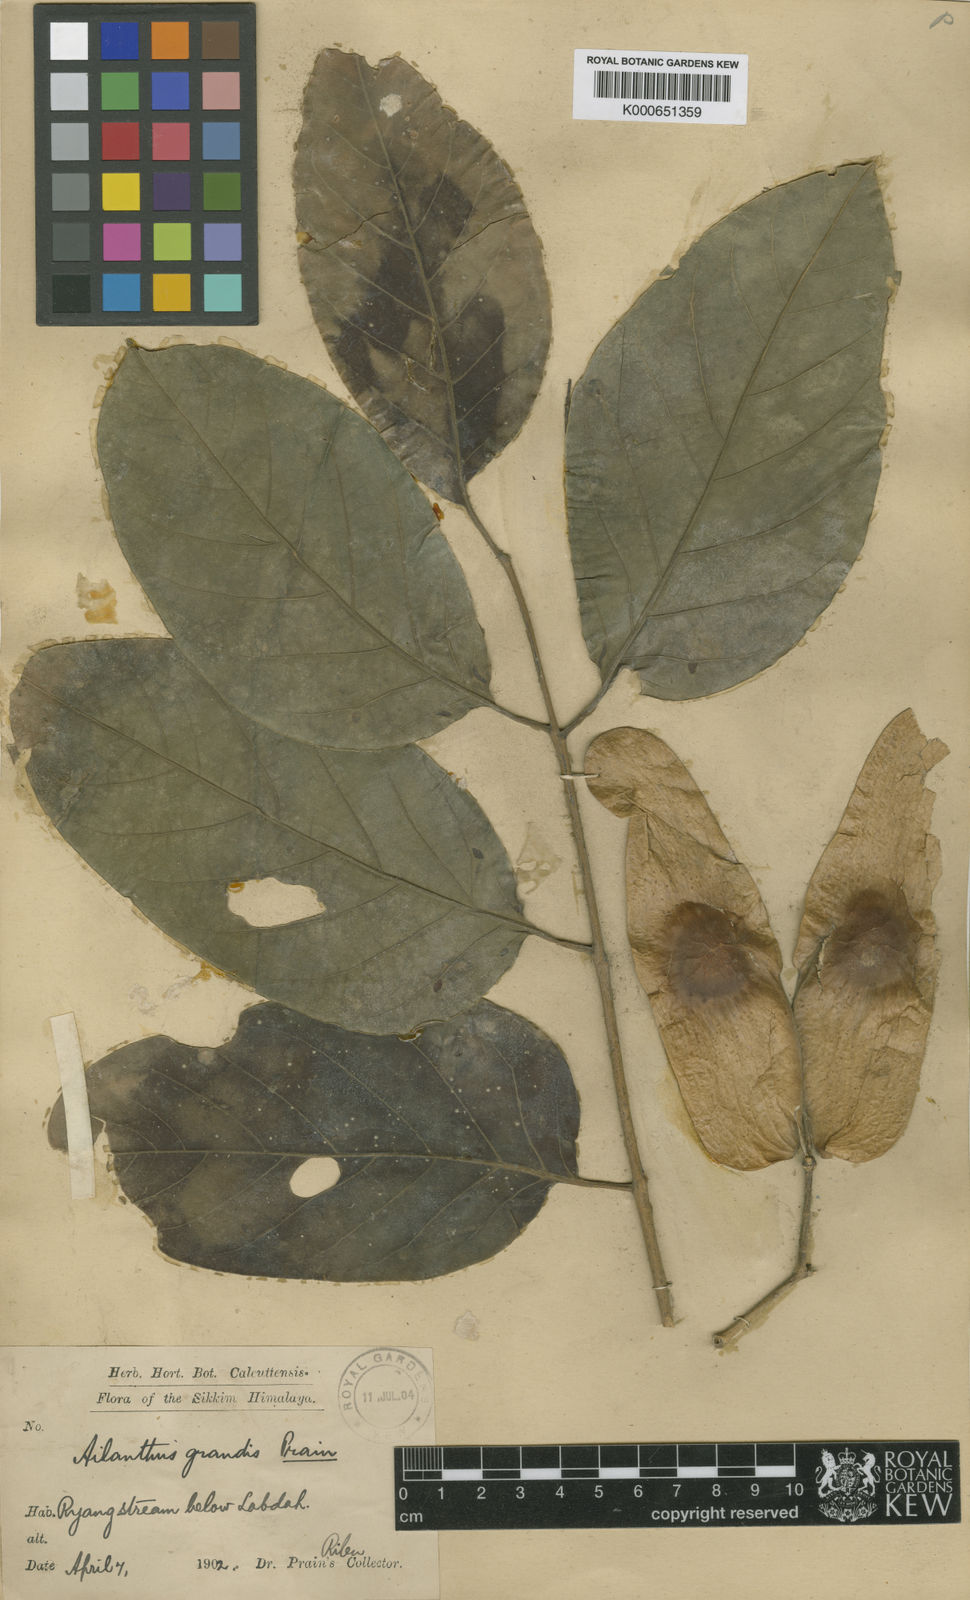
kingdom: Plantae
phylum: Tracheophyta
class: Magnoliopsida
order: Sapindales
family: Simaroubaceae
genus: Ailanthus
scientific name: Ailanthus integrifolia
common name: White siris
